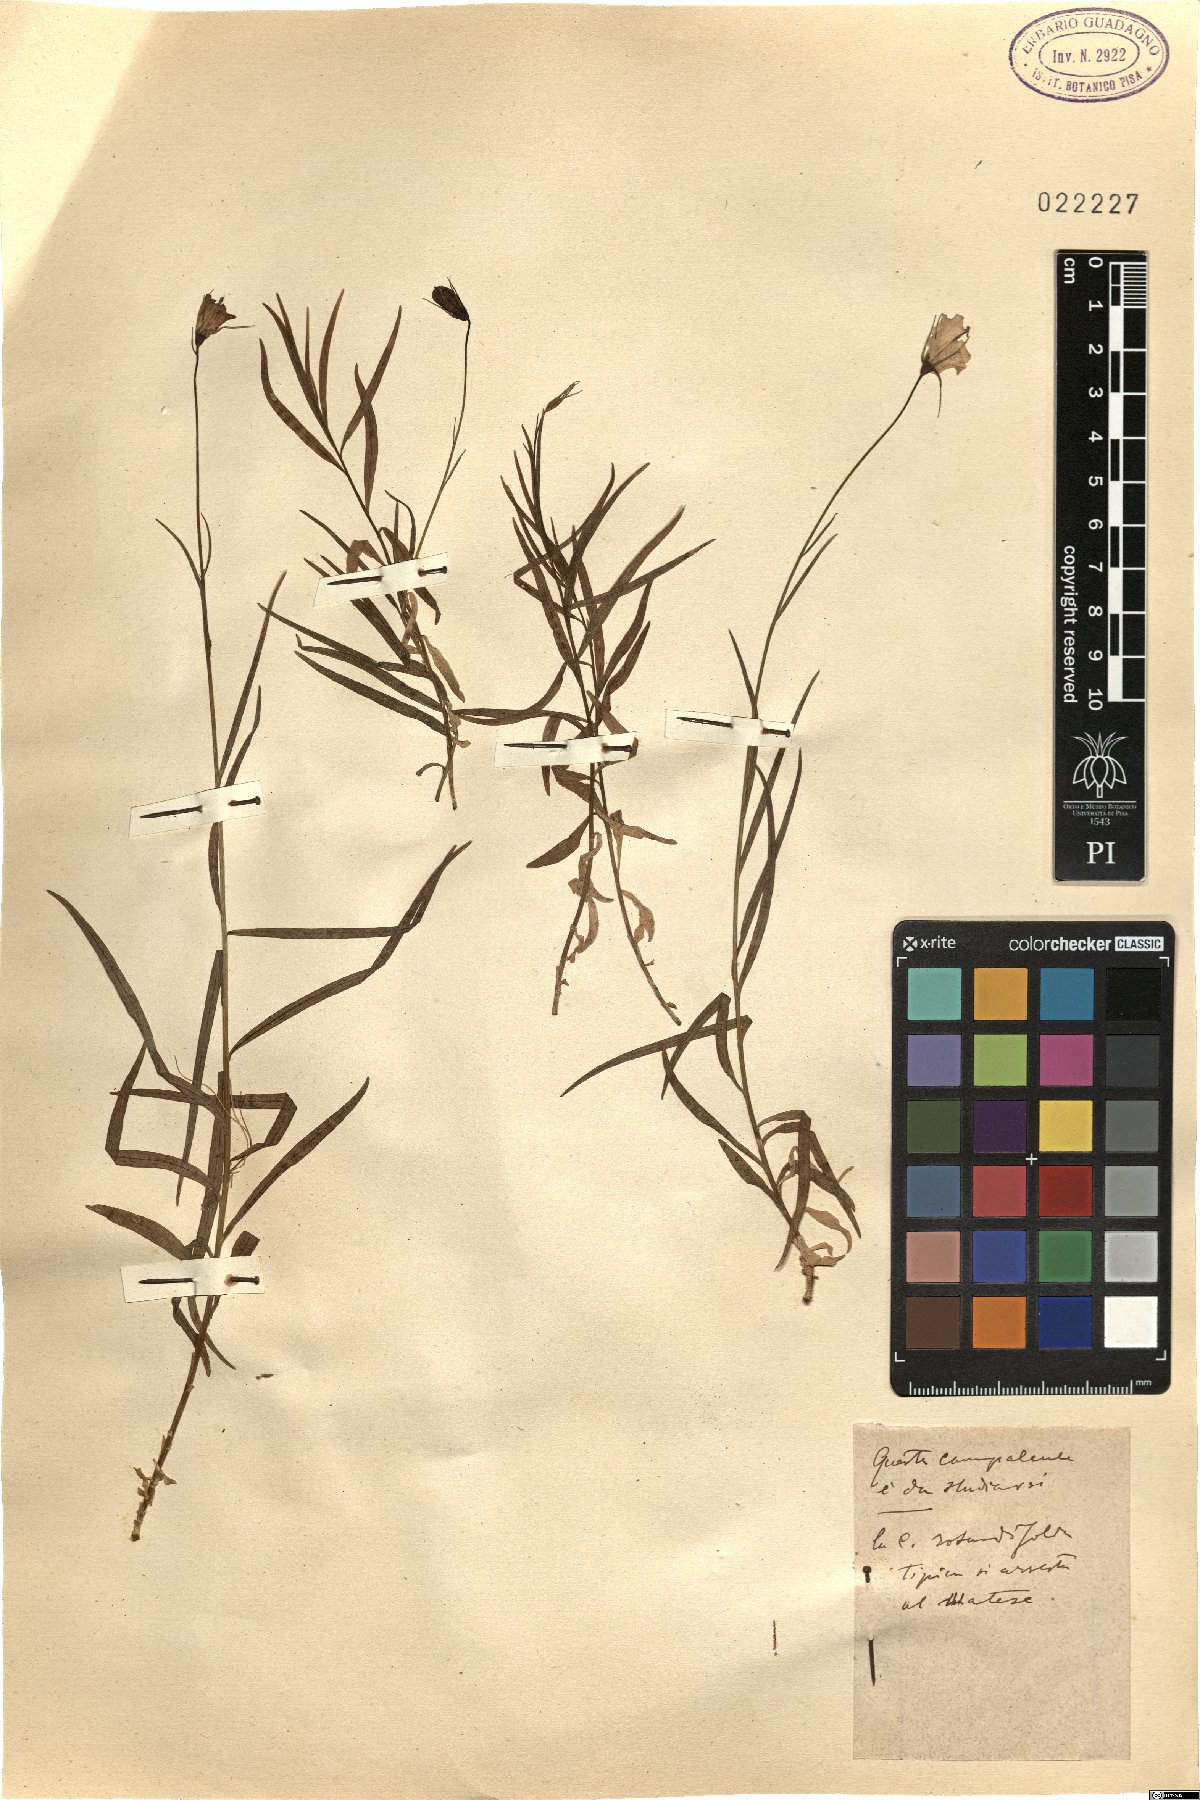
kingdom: Plantae
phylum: Tracheophyta
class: Magnoliopsida
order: Asterales
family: Campanulaceae
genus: Campanula
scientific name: Campanula
